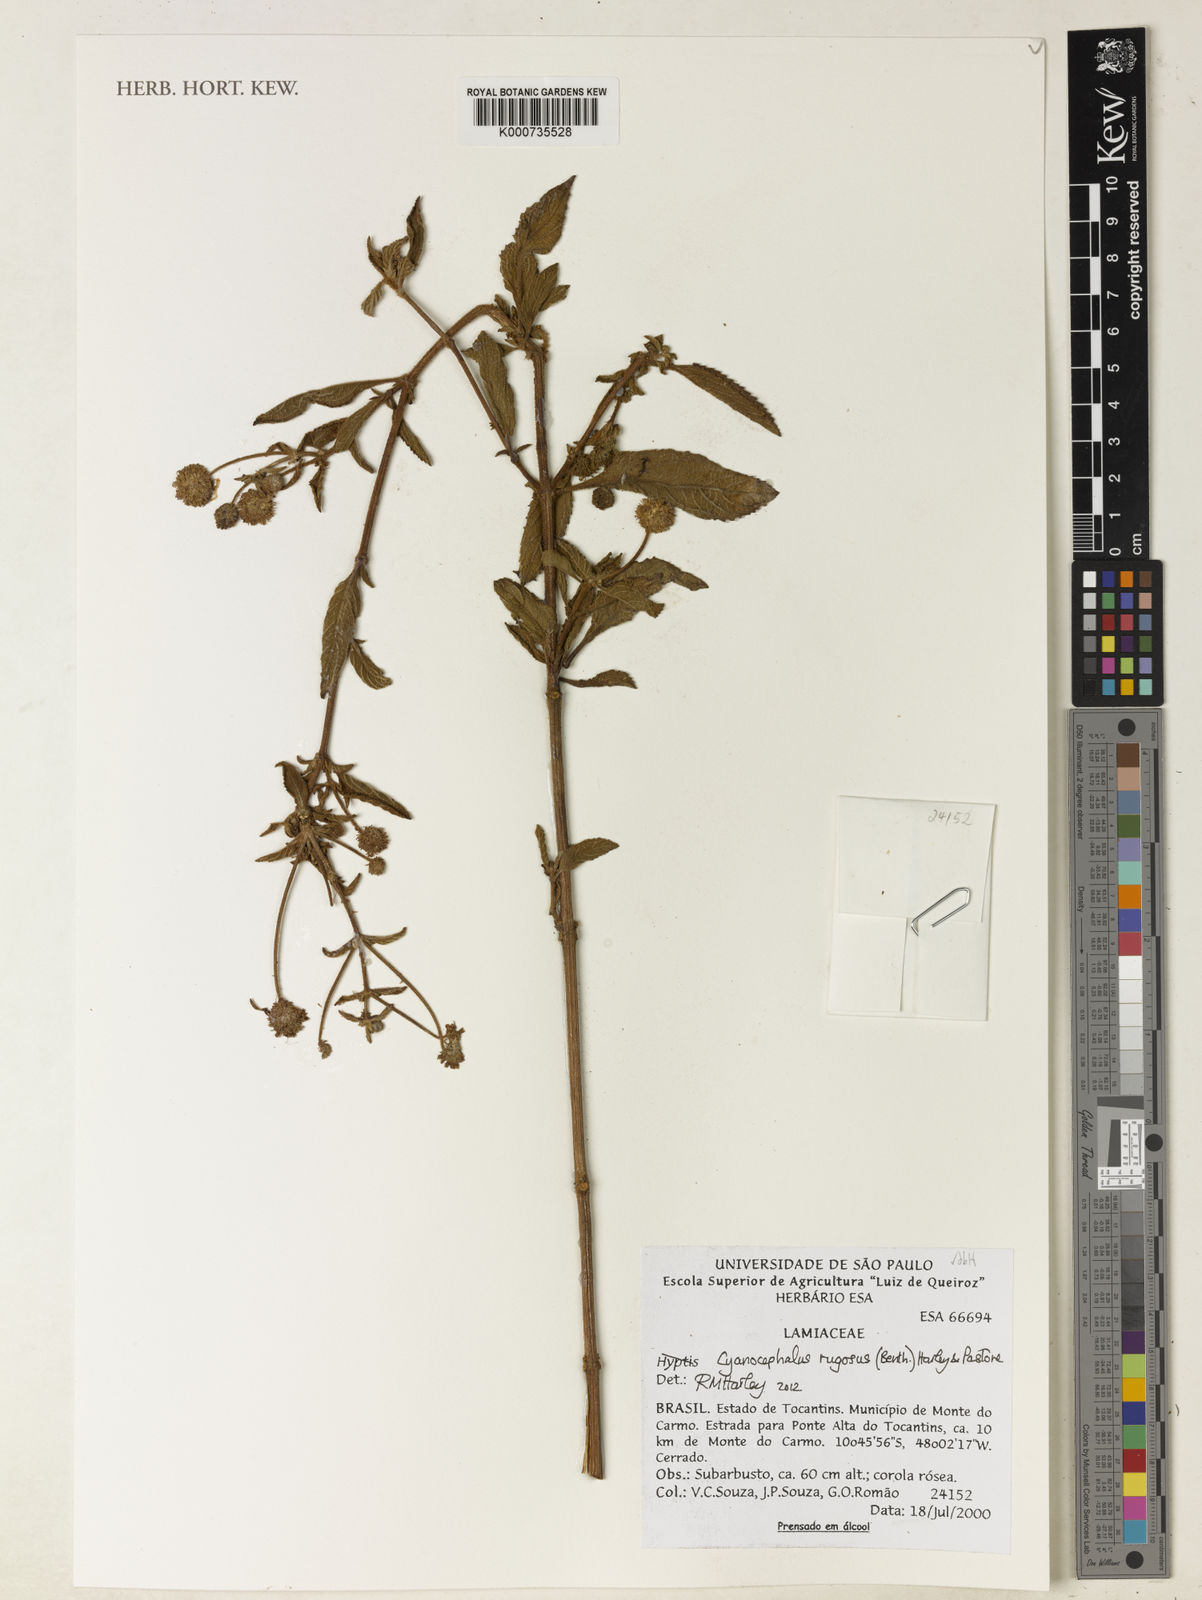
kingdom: Plantae
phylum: Tracheophyta
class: Magnoliopsida
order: Lamiales
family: Lamiaceae
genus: Cyanocephalus
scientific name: Cyanocephalus rugosus
